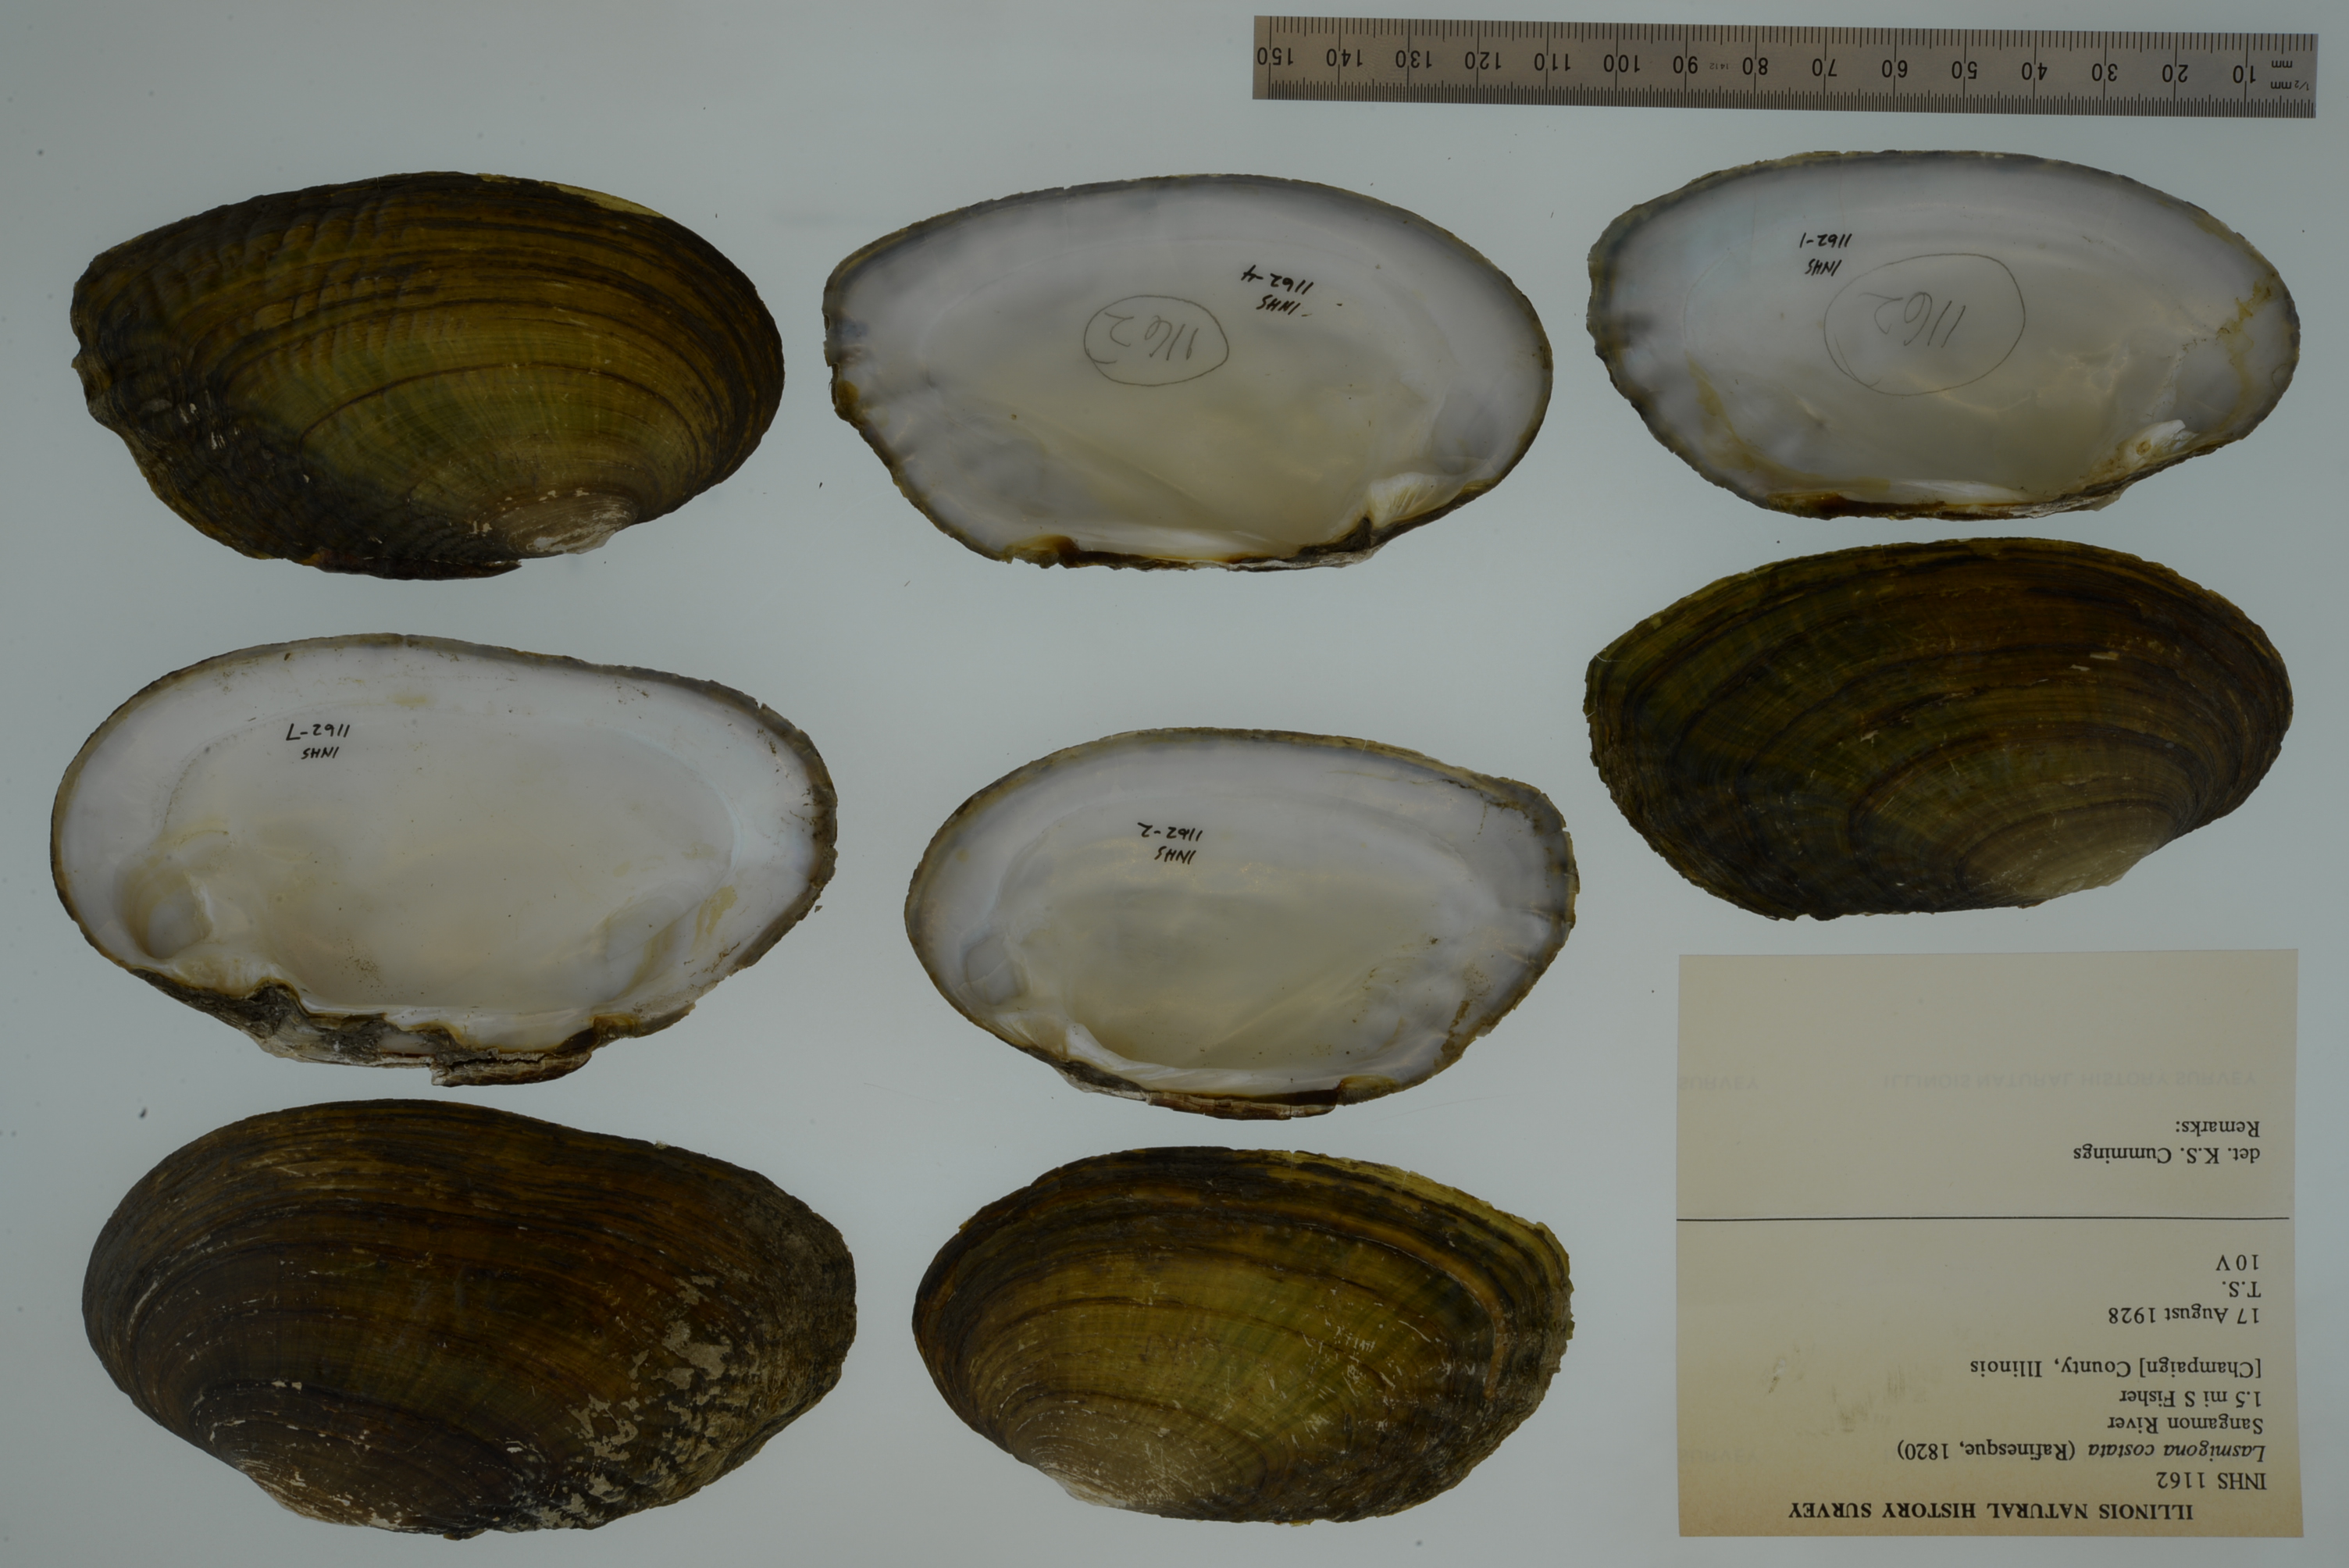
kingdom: Animalia
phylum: Mollusca
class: Bivalvia
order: Unionida
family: Unionidae
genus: Lasmigona
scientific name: Lasmigona costata
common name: Flutedshell
